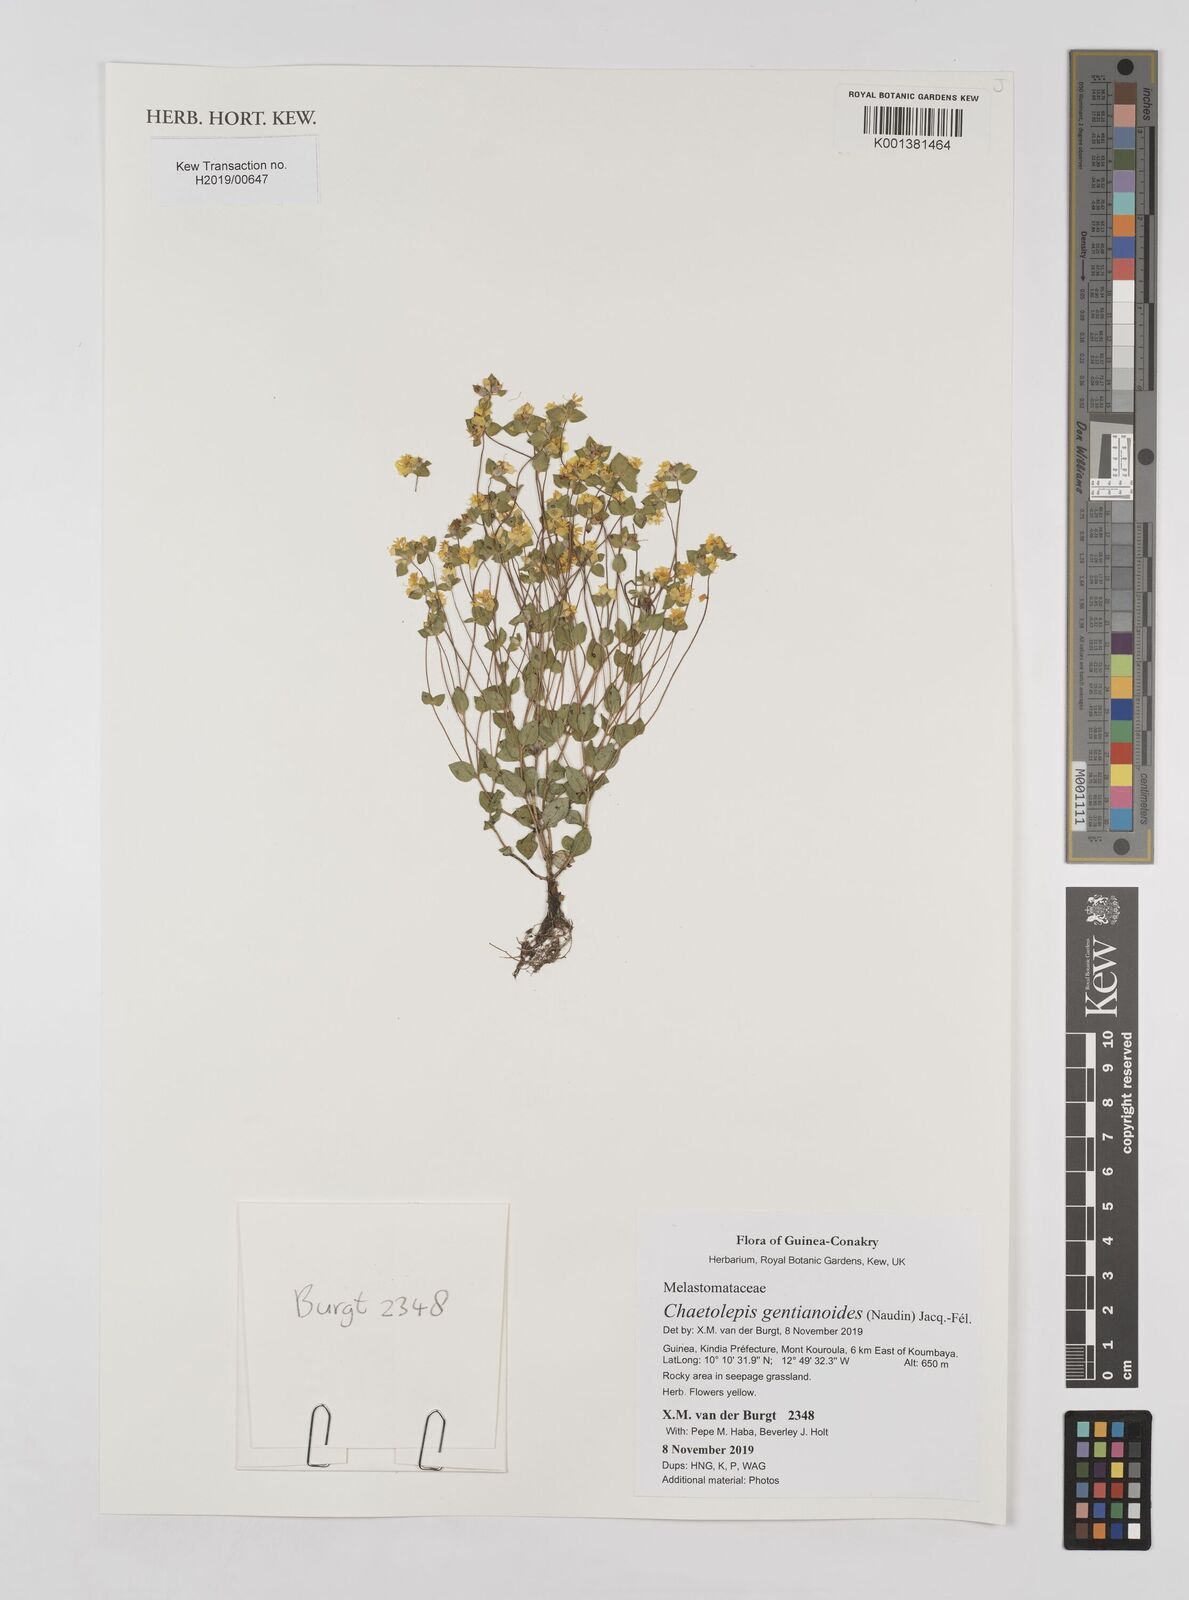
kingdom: Plantae
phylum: Tracheophyta
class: Magnoliopsida
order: Myrtales
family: Melastomataceae
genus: Nerophila
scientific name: Nerophila gentianoides
